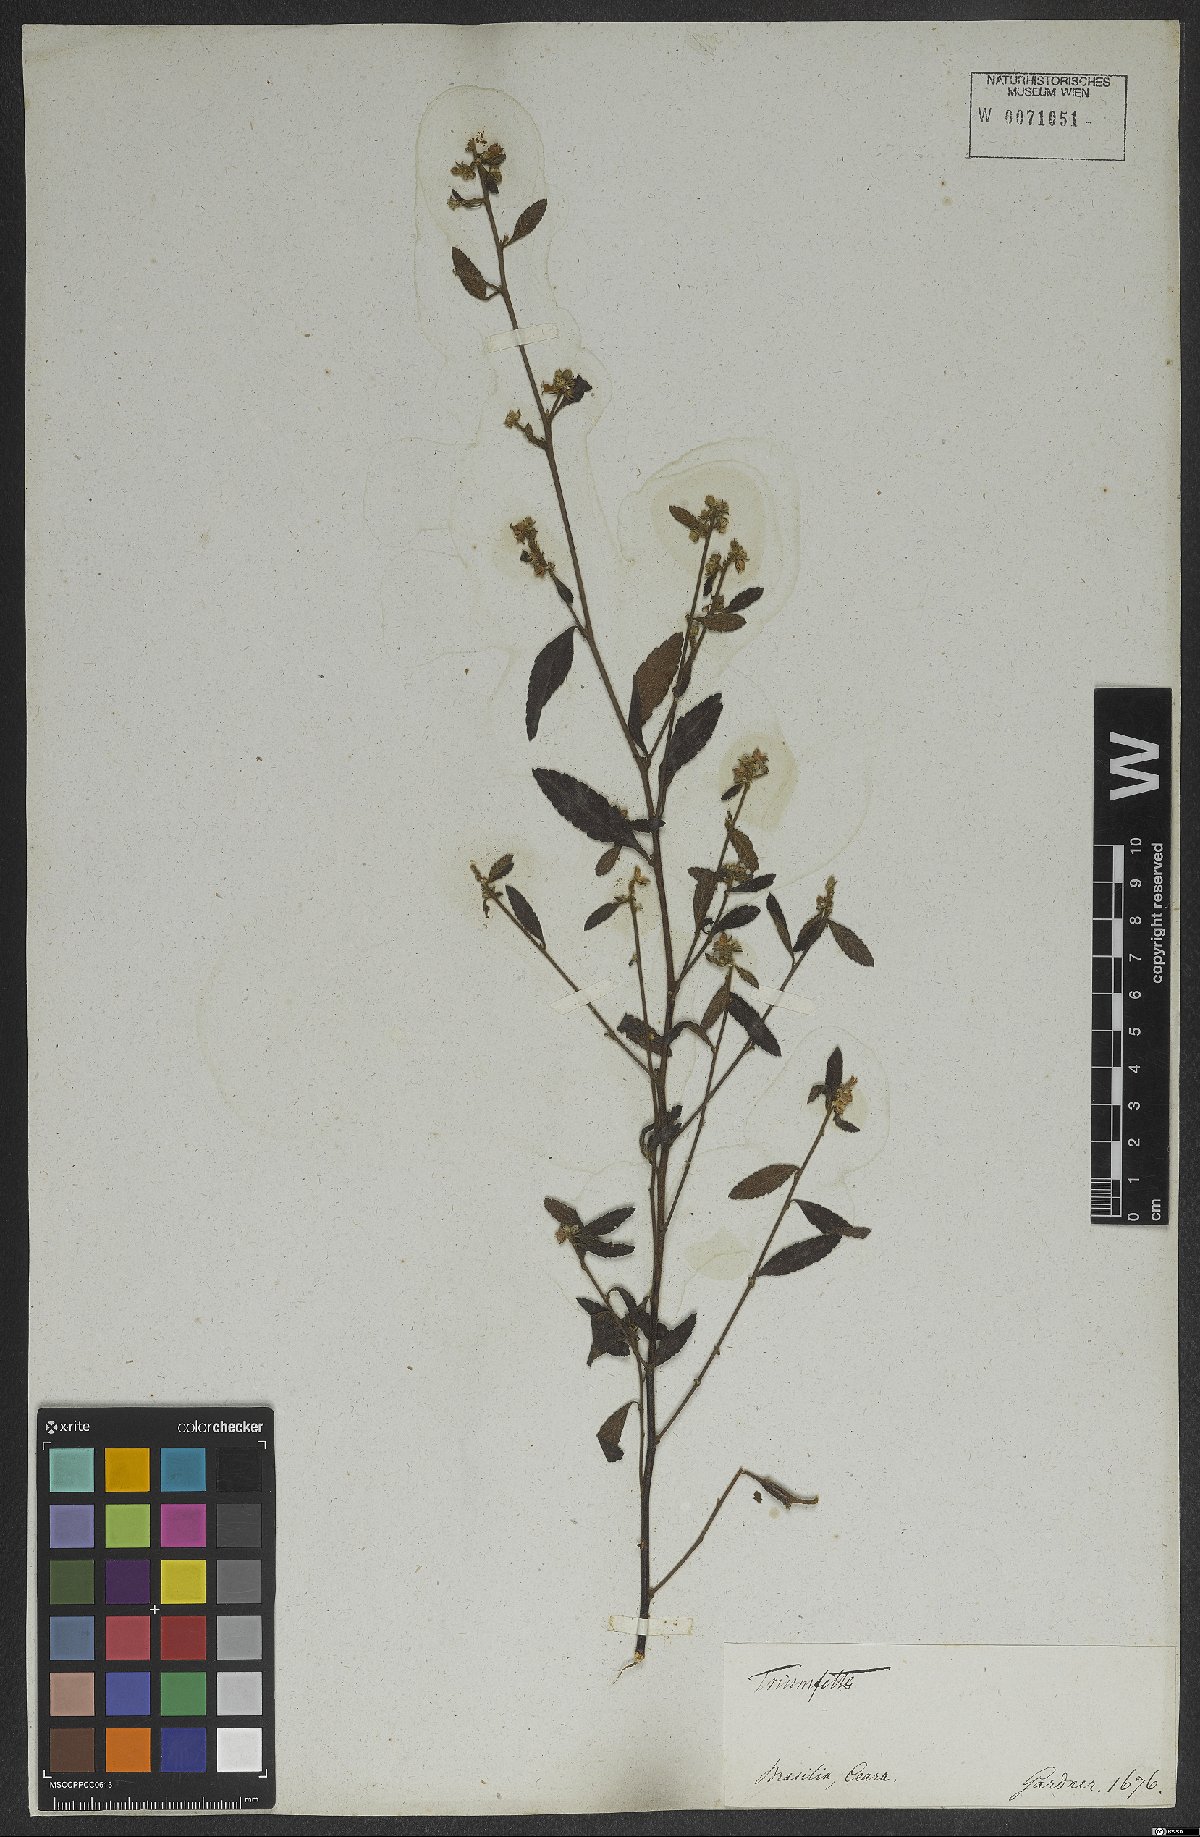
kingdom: Plantae
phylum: Tracheophyta
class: Magnoliopsida
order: Malvales
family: Malvaceae
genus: Triumfetta
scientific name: Triumfetta
